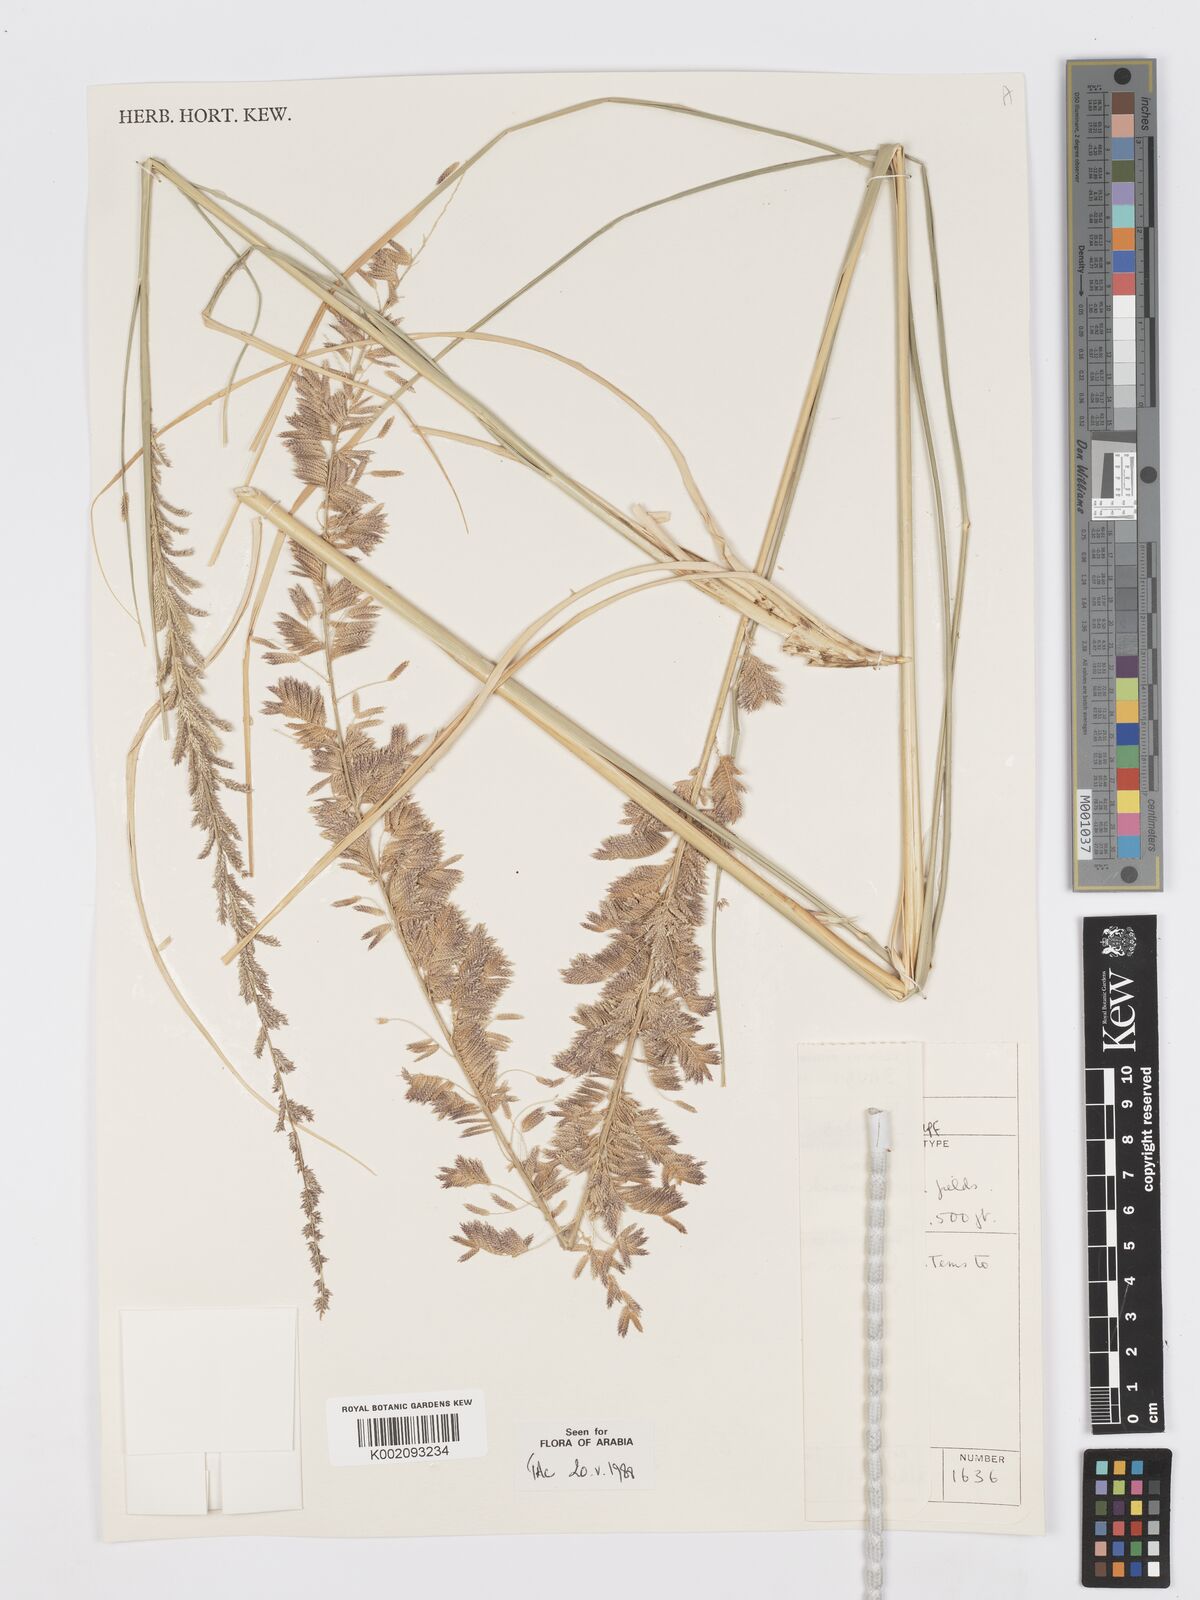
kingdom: Plantae
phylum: Tracheophyta
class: Liliopsida
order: Poales
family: Poaceae
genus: Desmostachya
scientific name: Desmostachya bipinnata
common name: Crowfoot grass
